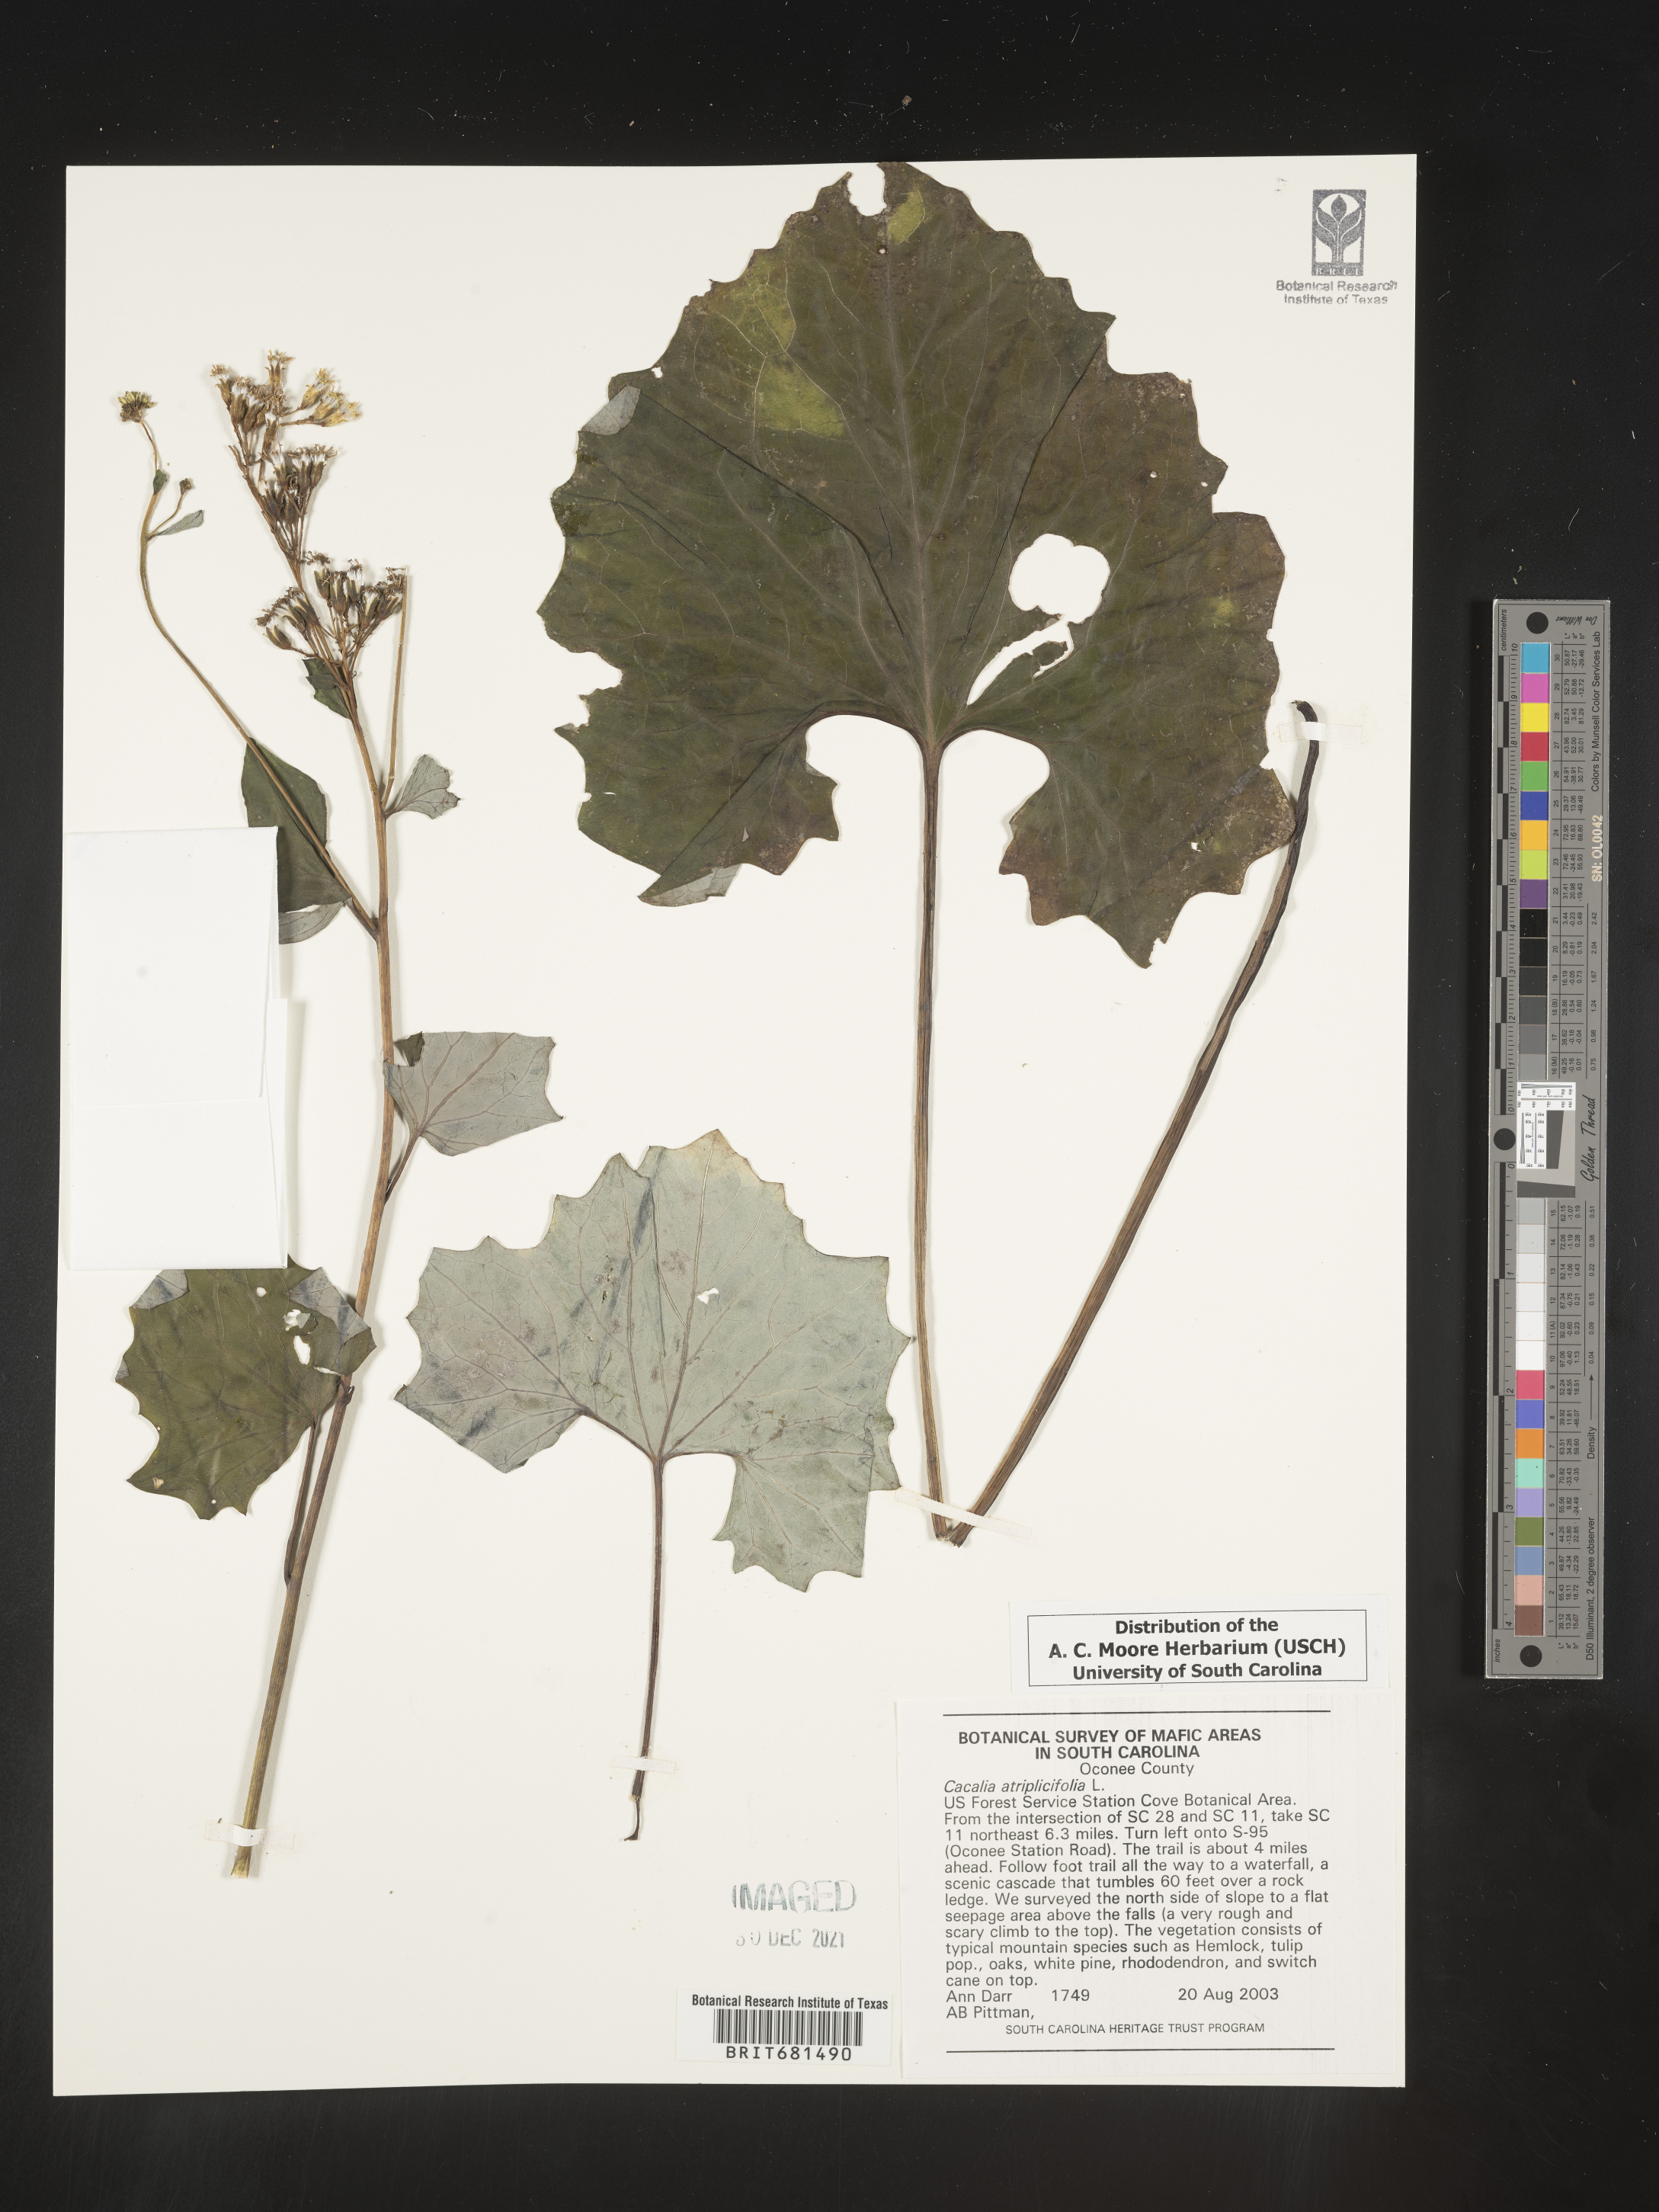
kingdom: Plantae
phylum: Tracheophyta
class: Magnoliopsida
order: Asterales
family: Asteraceae
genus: Arnoglossum
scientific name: Arnoglossum atriplicifolium
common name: Pale indian-plantain
